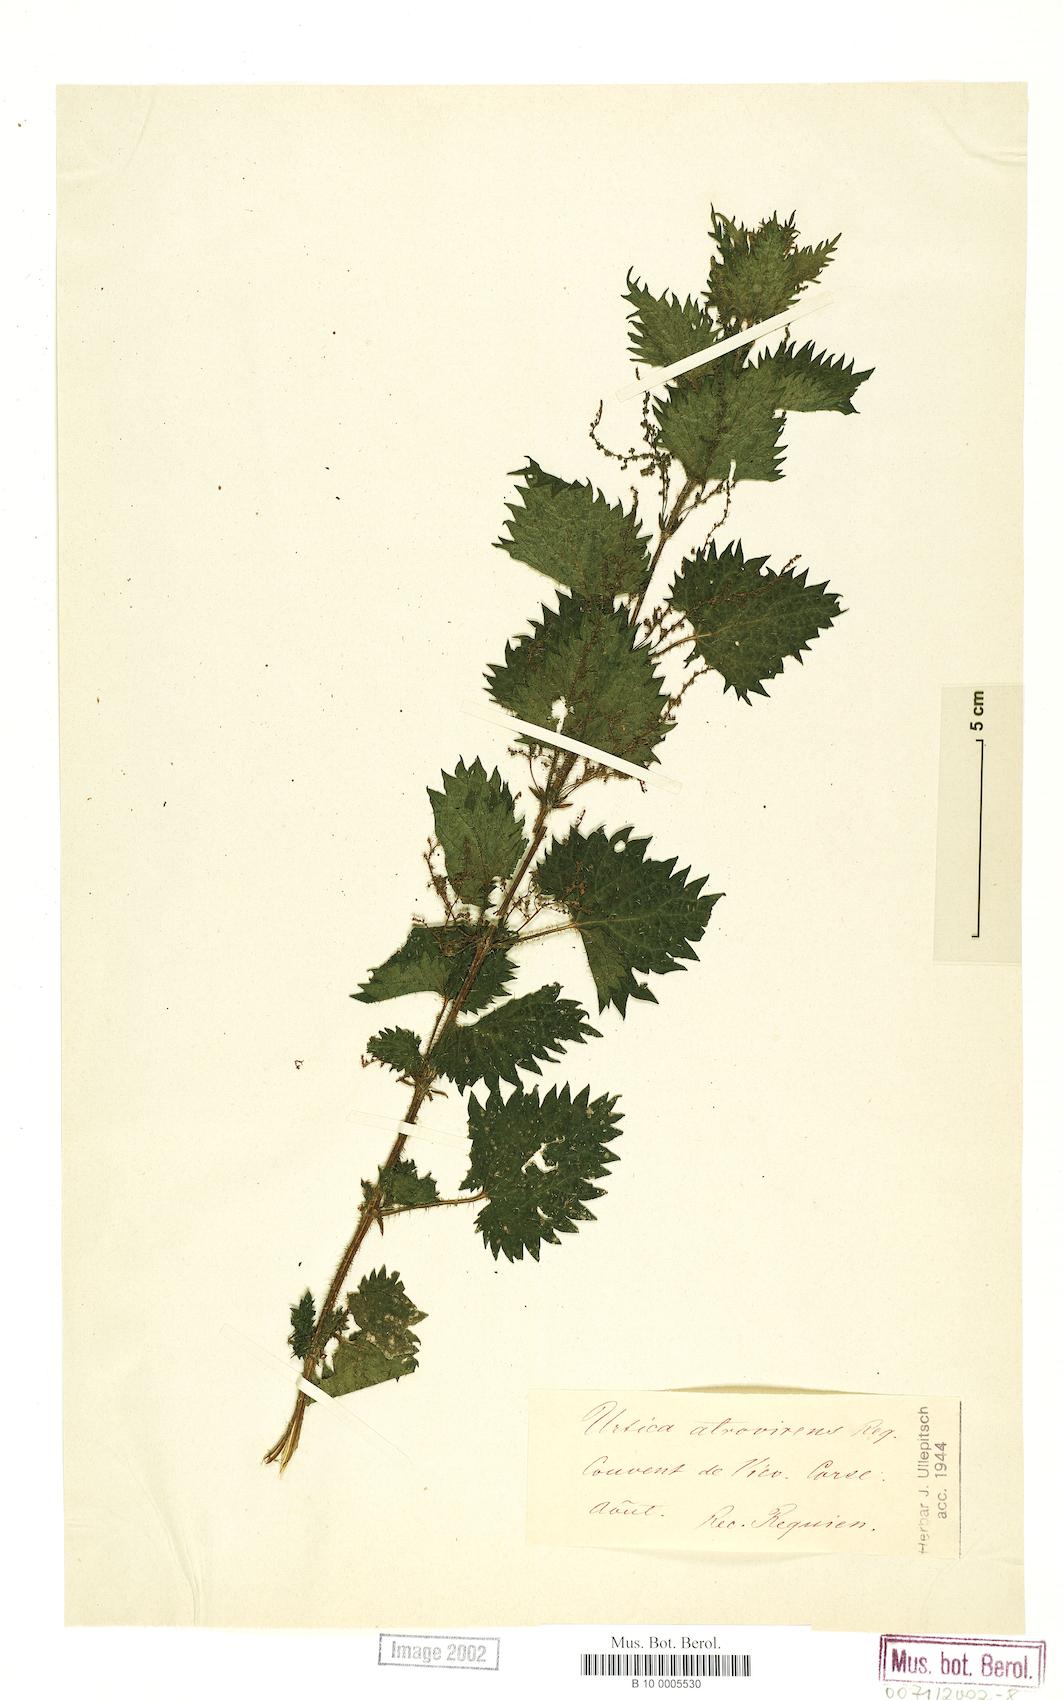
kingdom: Plantae
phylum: Tracheophyta
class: Magnoliopsida
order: Rosales
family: Urticaceae
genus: Urtica
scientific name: Urtica atrovirens
